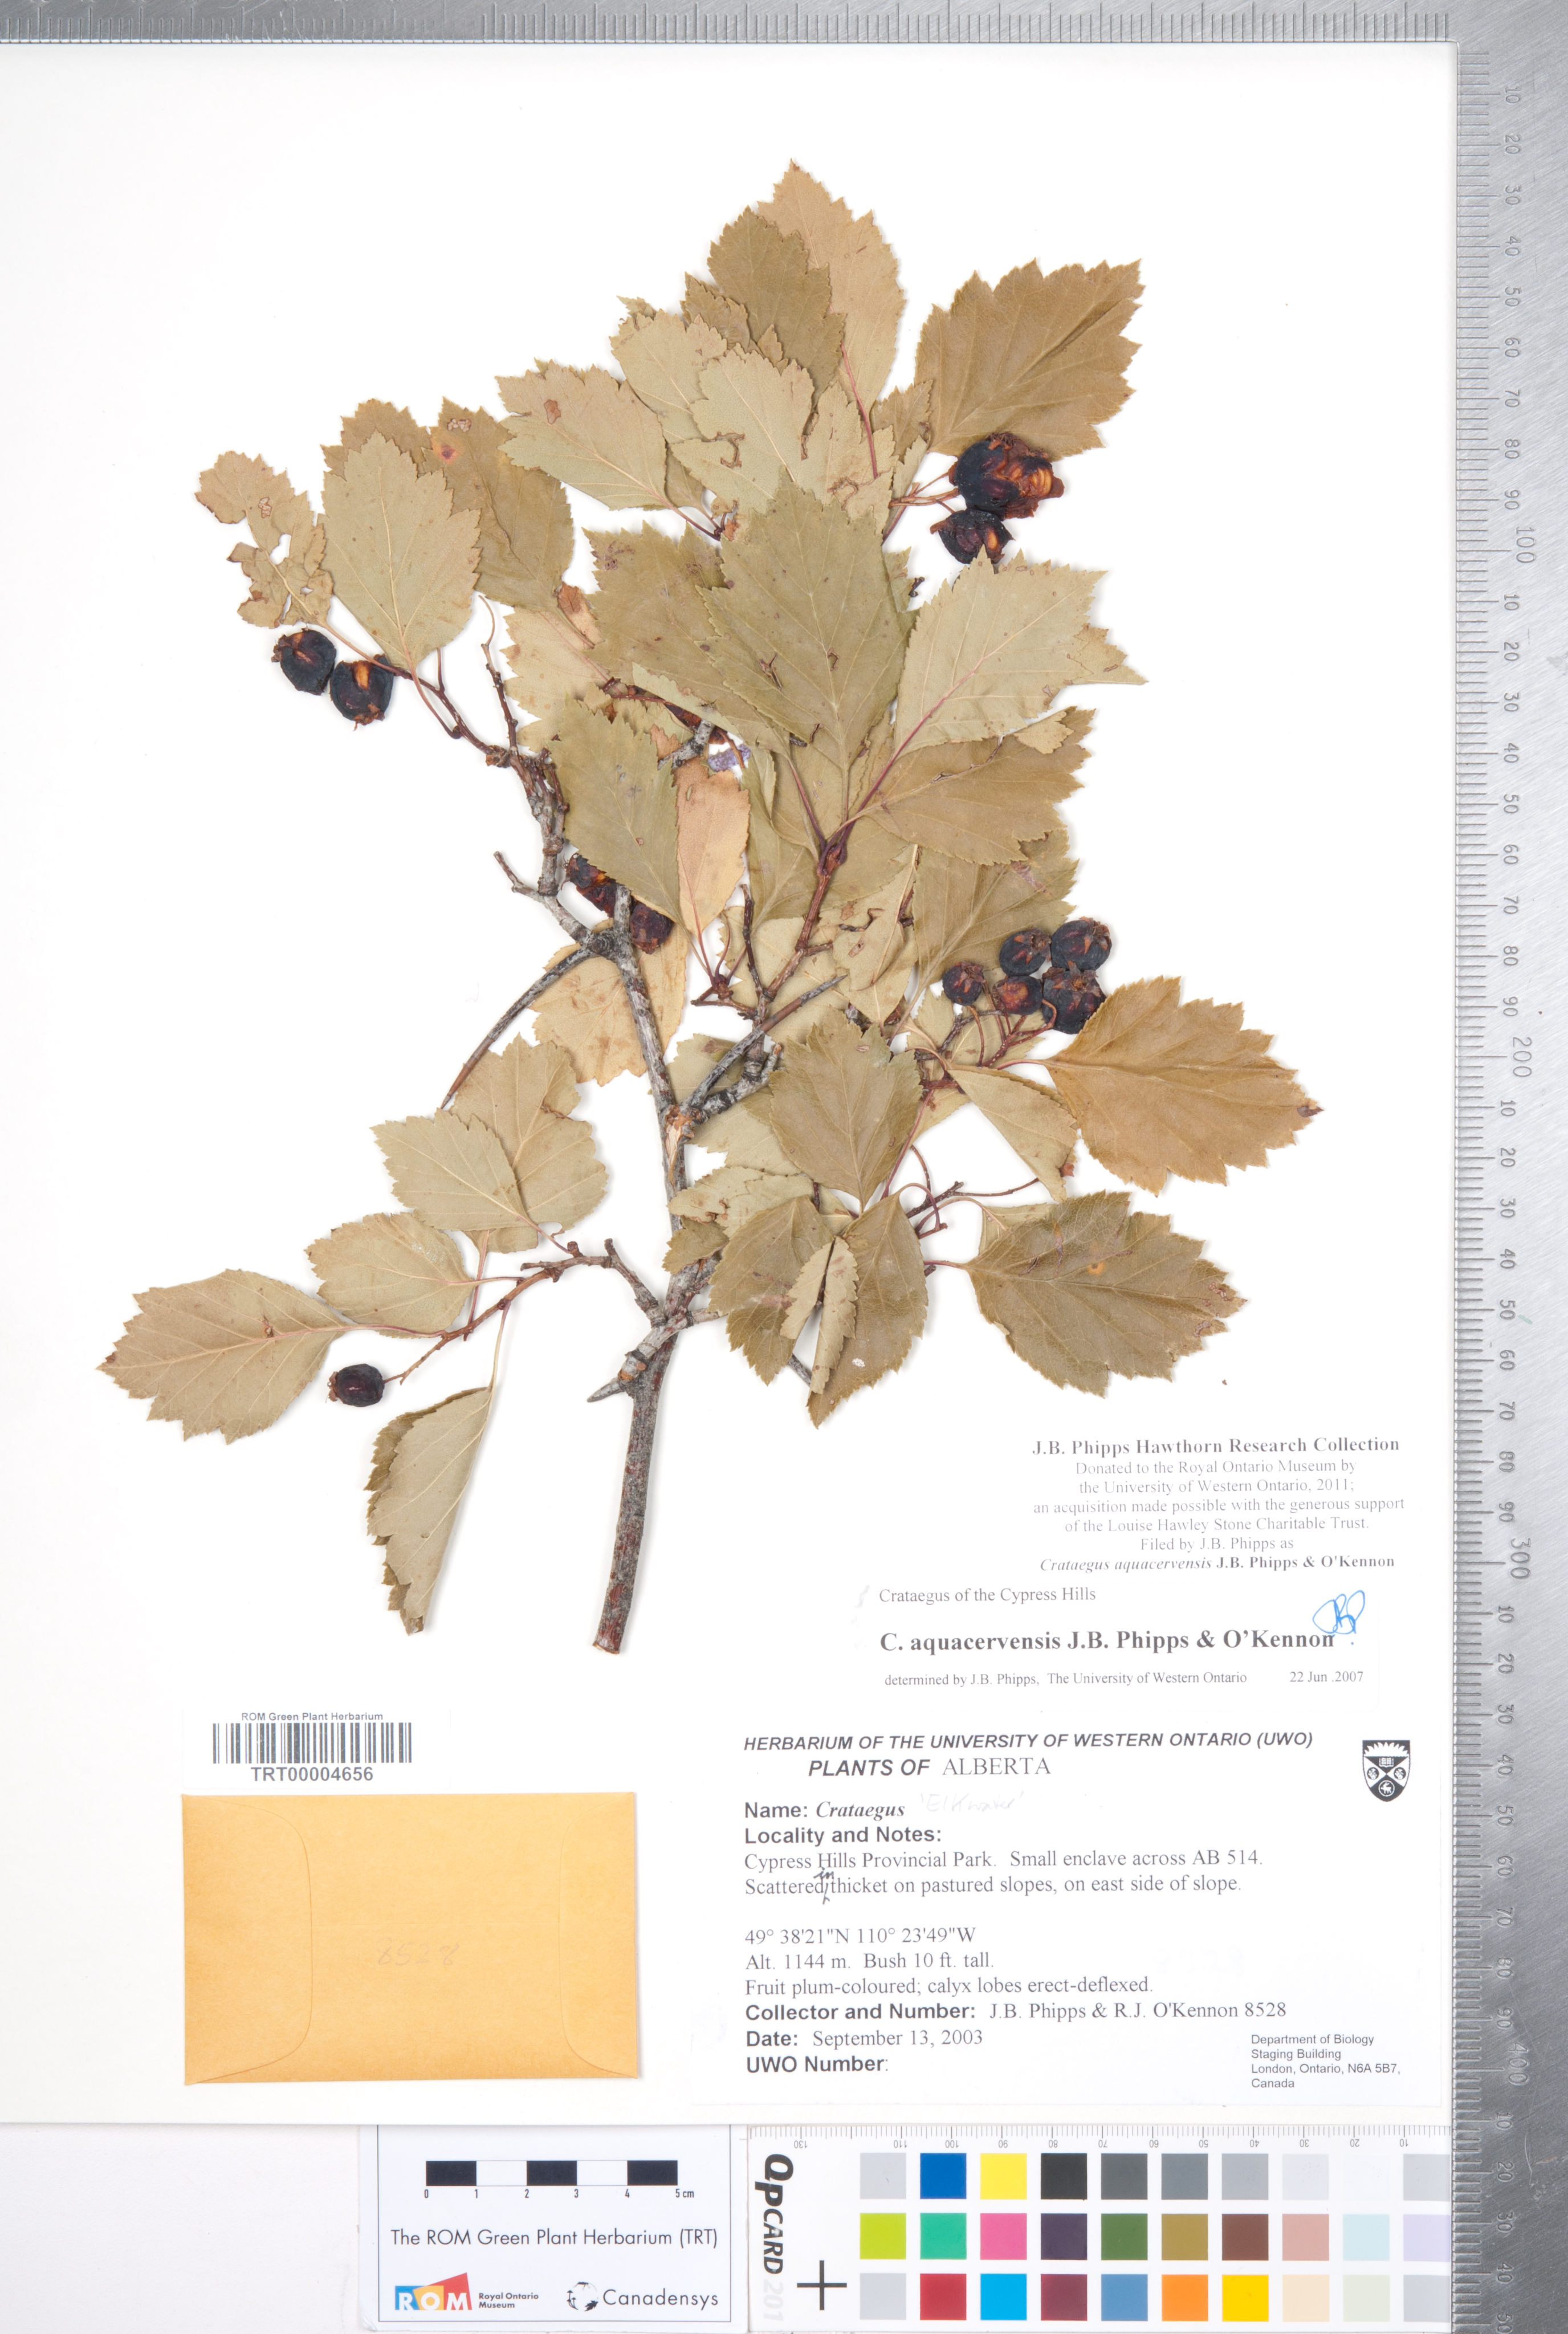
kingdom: Plantae
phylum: Tracheophyta
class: Magnoliopsida
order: Rosales
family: Rosaceae
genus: Crataegus
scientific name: Crataegus aquacervensis
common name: Elkwater hawthorn
